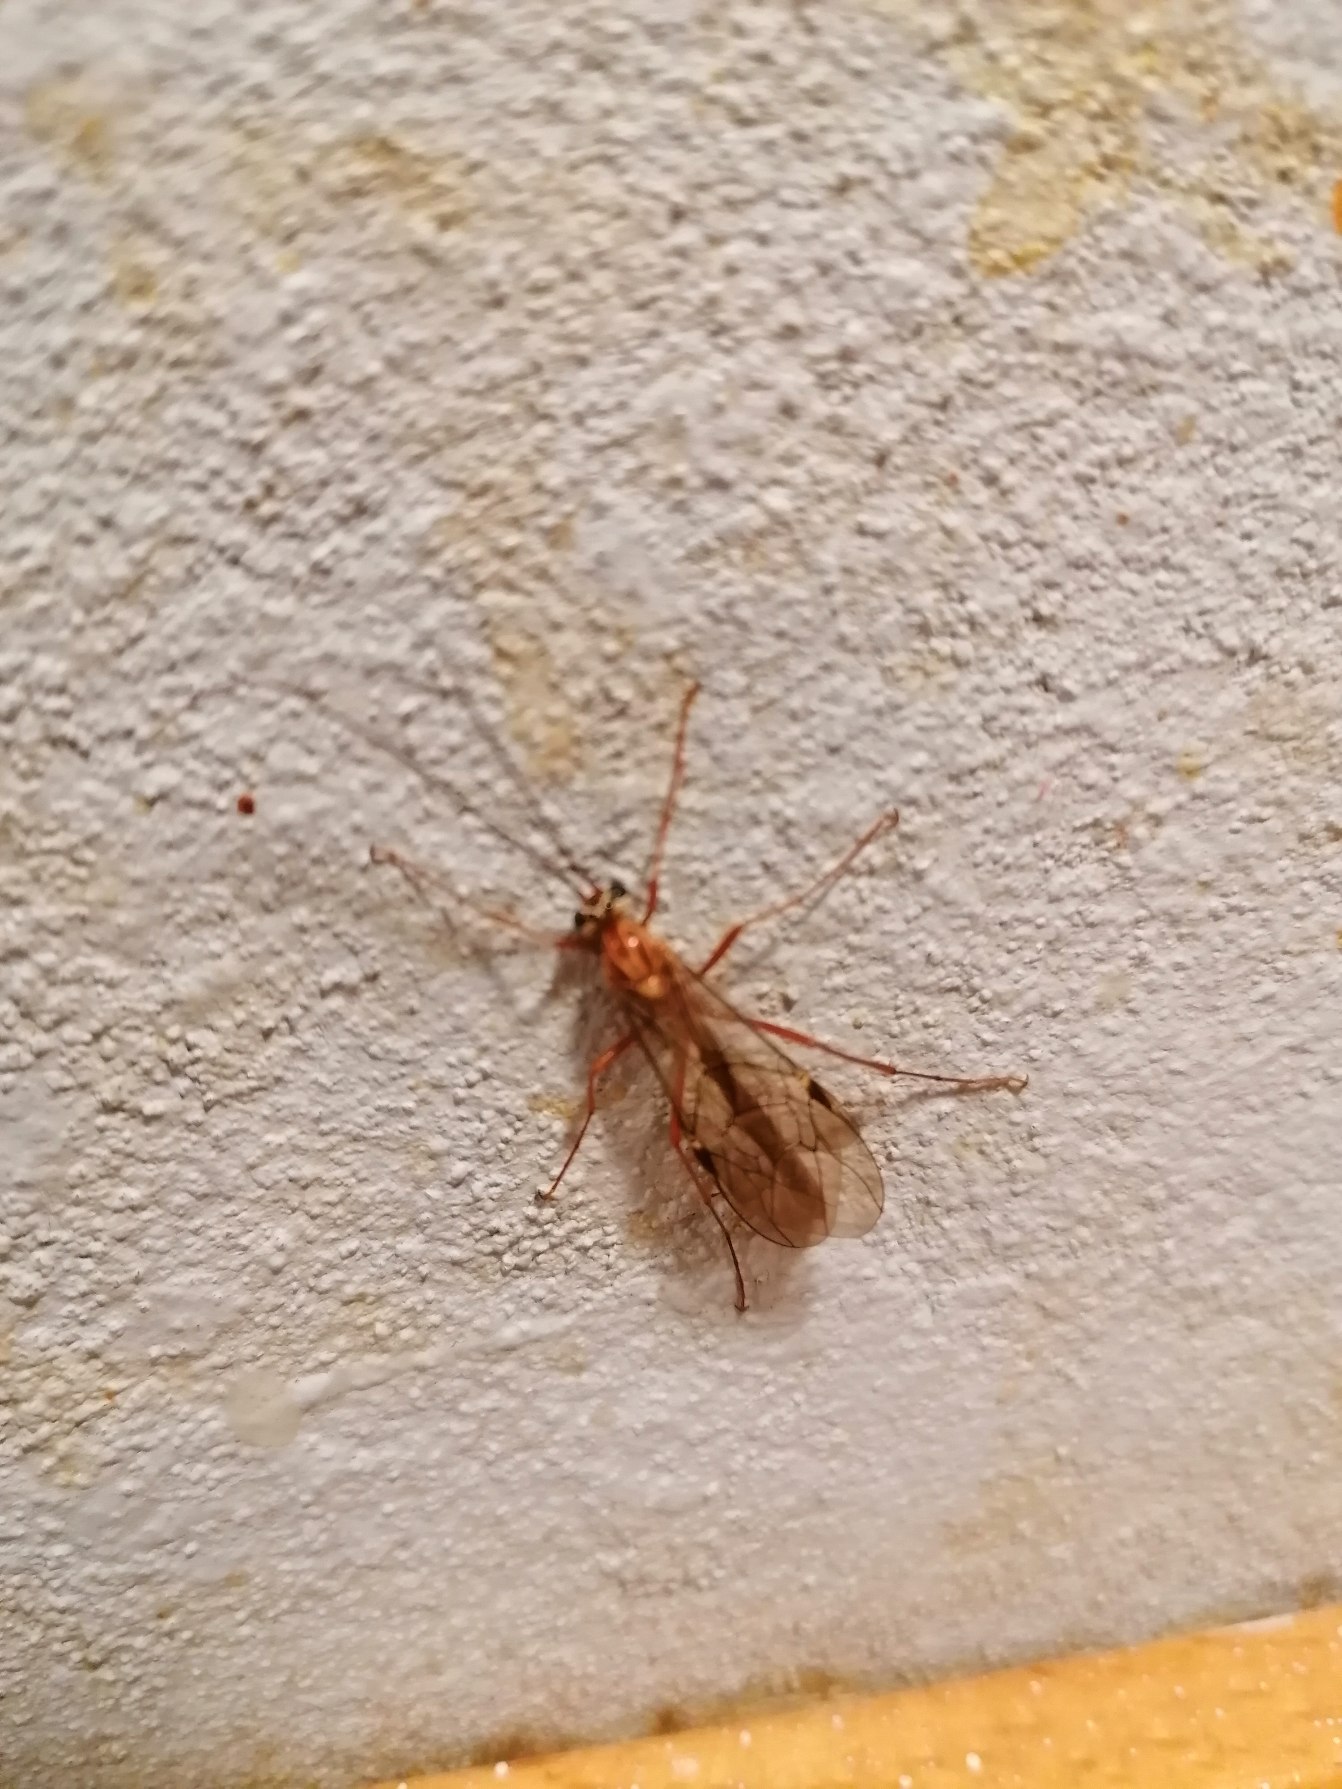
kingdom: Animalia
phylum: Arthropoda
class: Insecta
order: Hymenoptera
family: Ichneumonidae
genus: Ophion
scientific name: Ophion obscuratus
